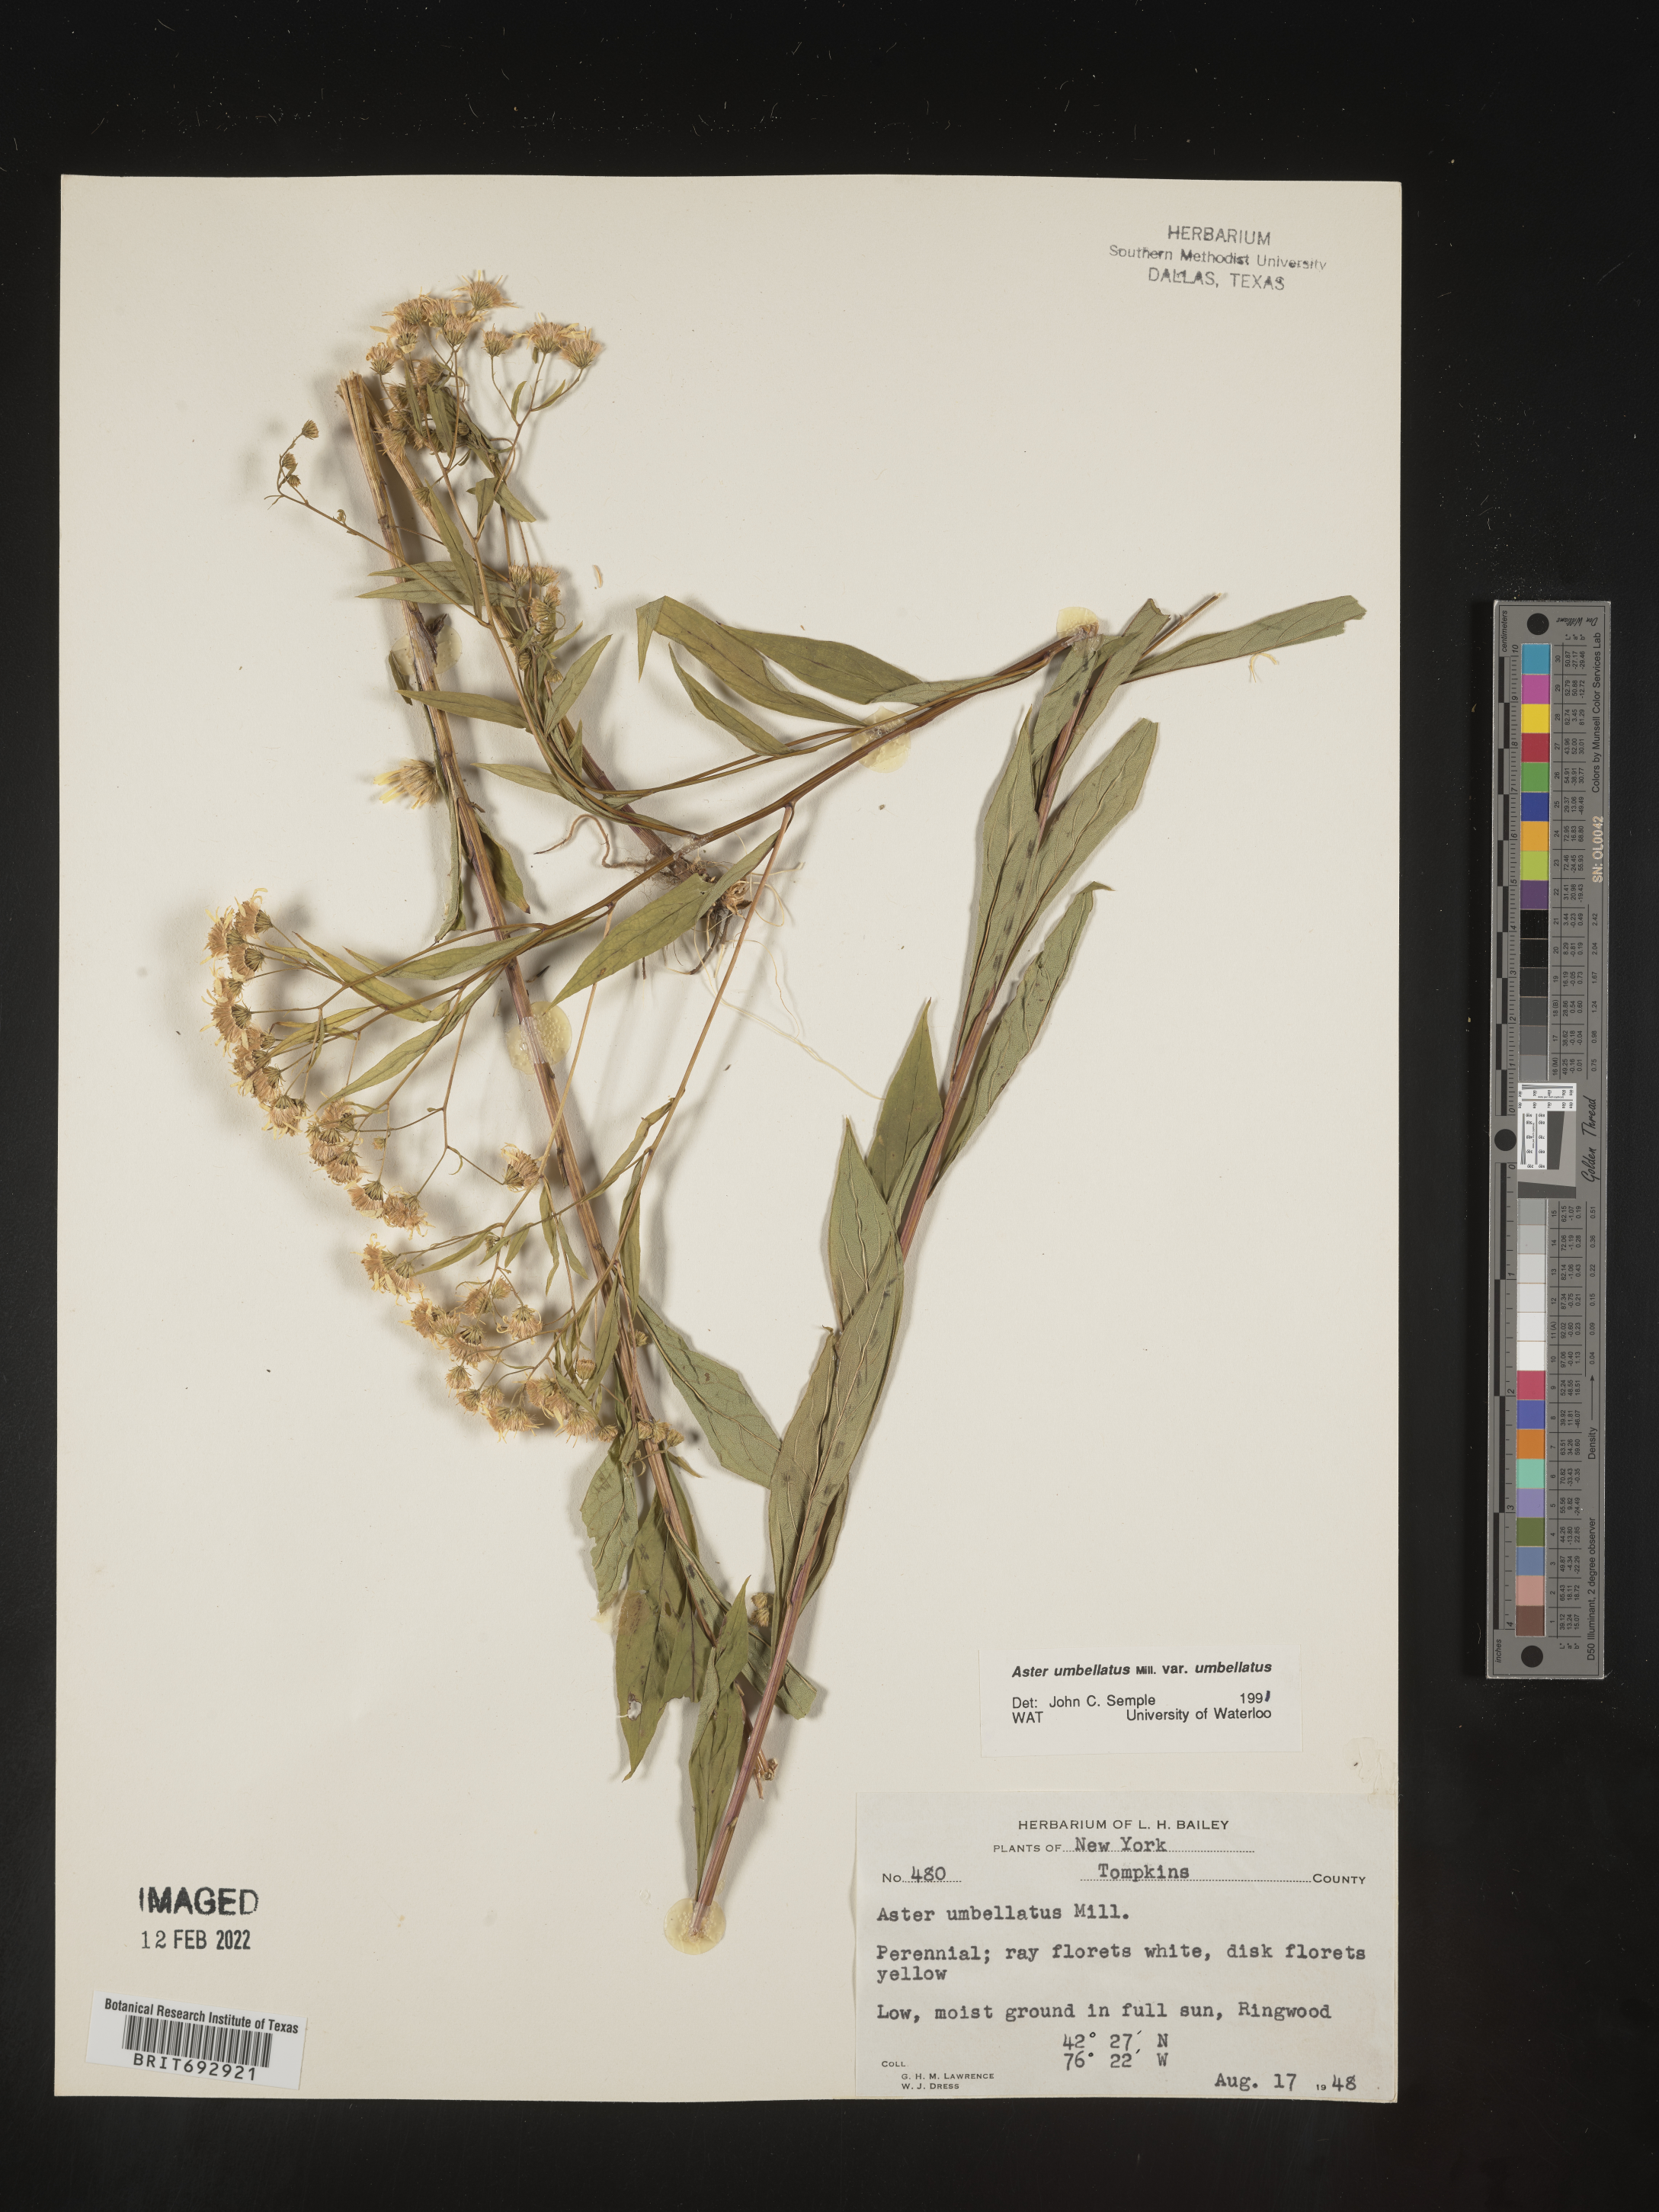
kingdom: Plantae
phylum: Tracheophyta
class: Magnoliopsida
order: Asterales
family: Asteraceae
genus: Doellingeria
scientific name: Doellingeria umbellata
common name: Flat-top white aster
